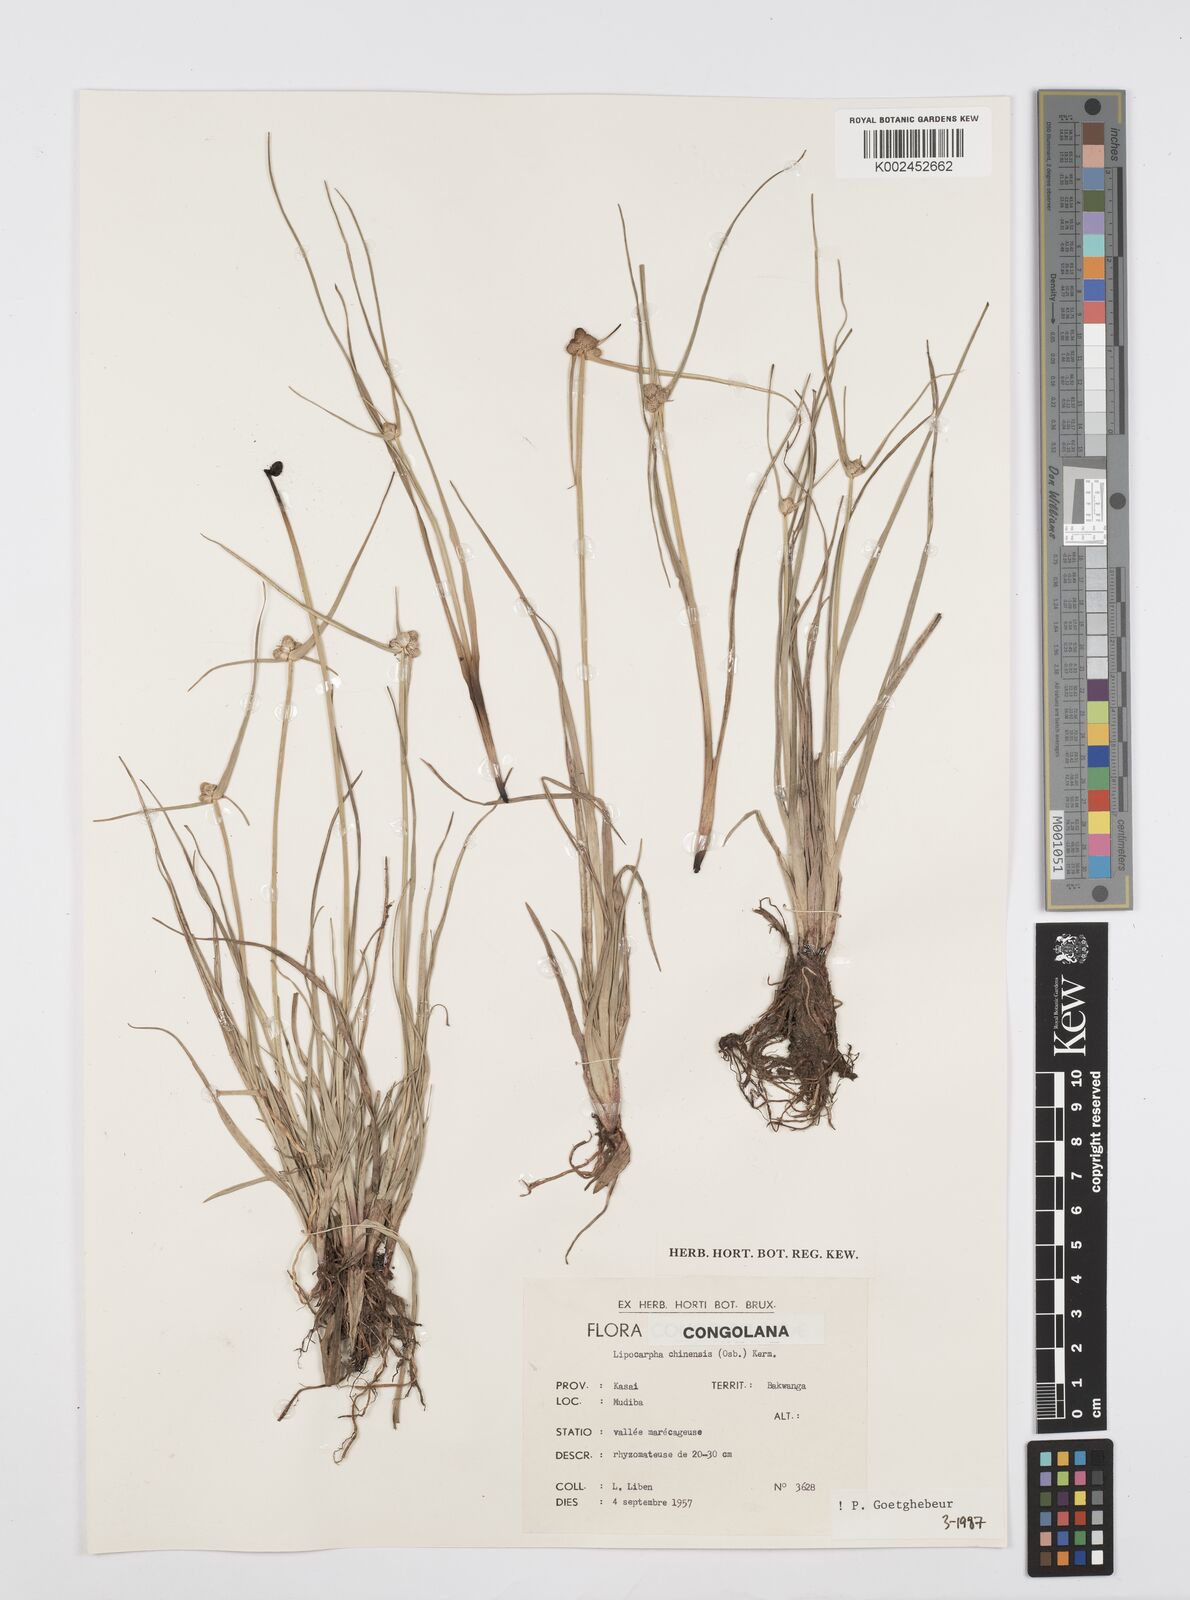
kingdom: Plantae
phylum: Tracheophyta
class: Liliopsida
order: Poales
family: Cyperaceae
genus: Cyperus
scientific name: Cyperus albescens
